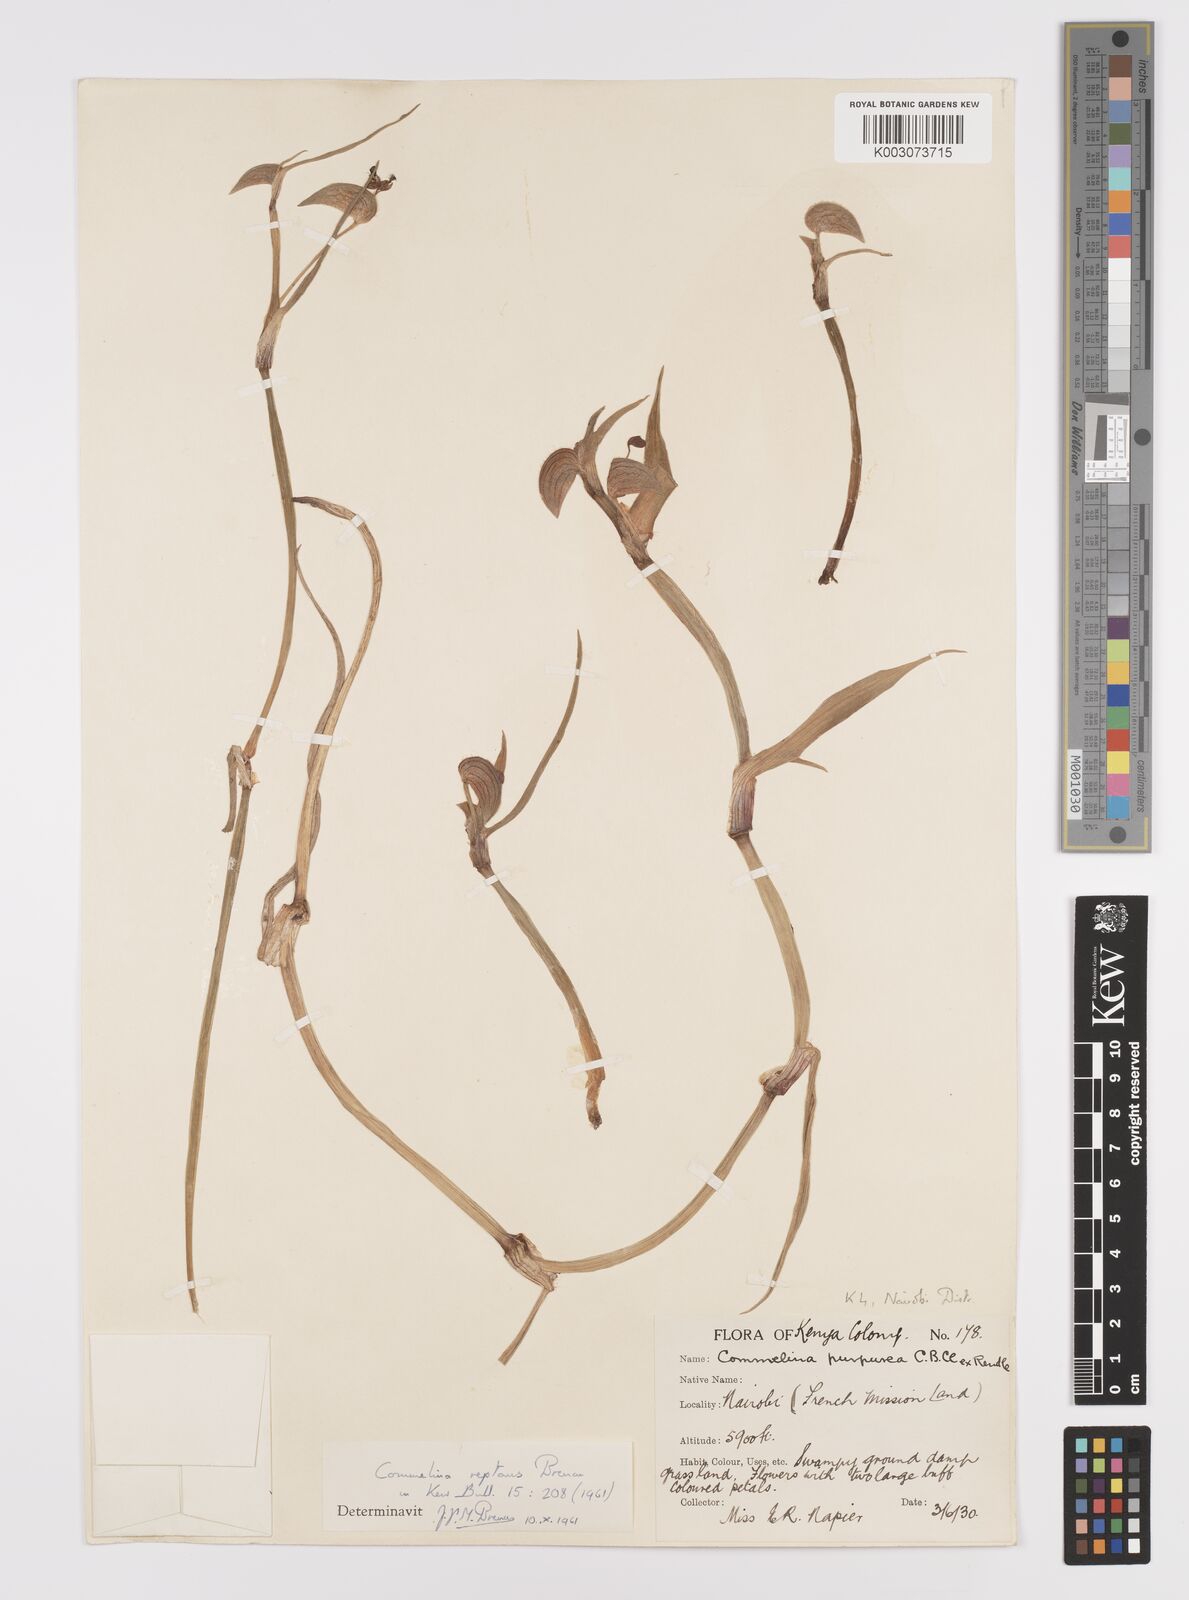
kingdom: Plantae
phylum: Tracheophyta
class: Liliopsida
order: Commelinales
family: Commelinaceae
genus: Commelina
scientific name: Commelina reptans
